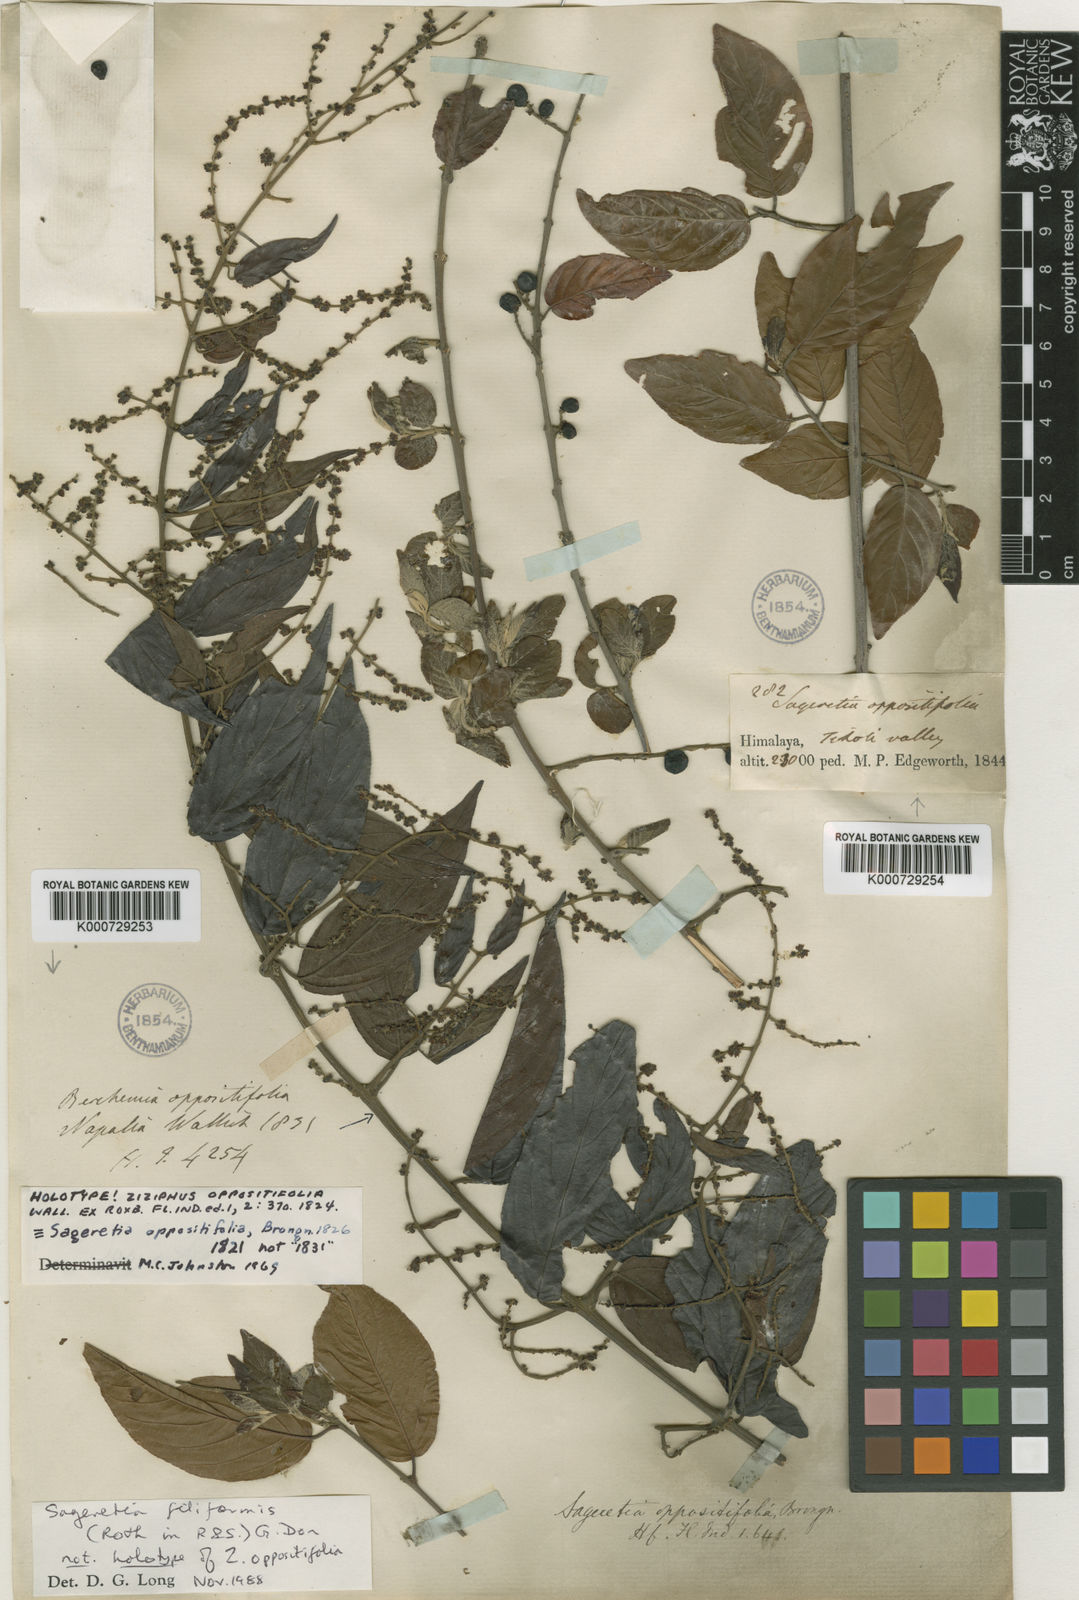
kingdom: Plantae
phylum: Tracheophyta
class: Magnoliopsida
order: Rosales
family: Rhamnaceae
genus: Sageretia
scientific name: Sageretia filiformis
